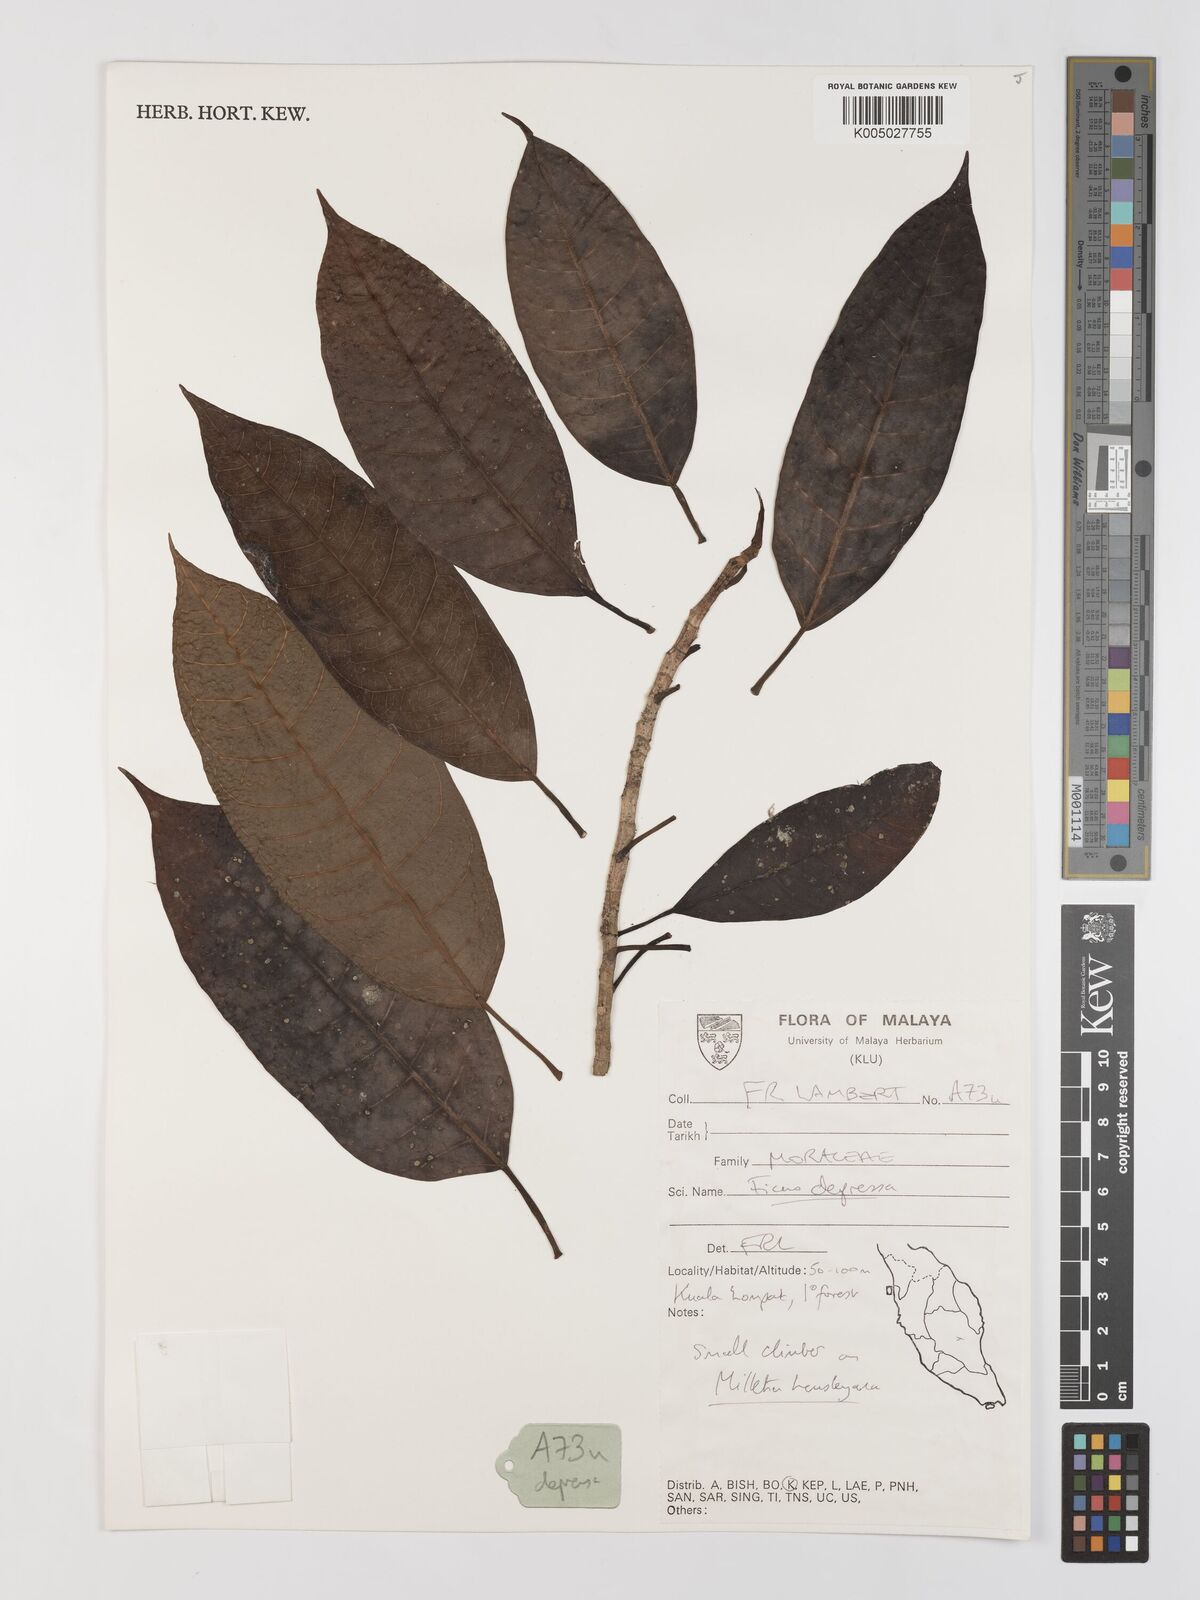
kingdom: Plantae
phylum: Tracheophyta
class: Magnoliopsida
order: Rosales
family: Moraceae
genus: Ficus
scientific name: Ficus
